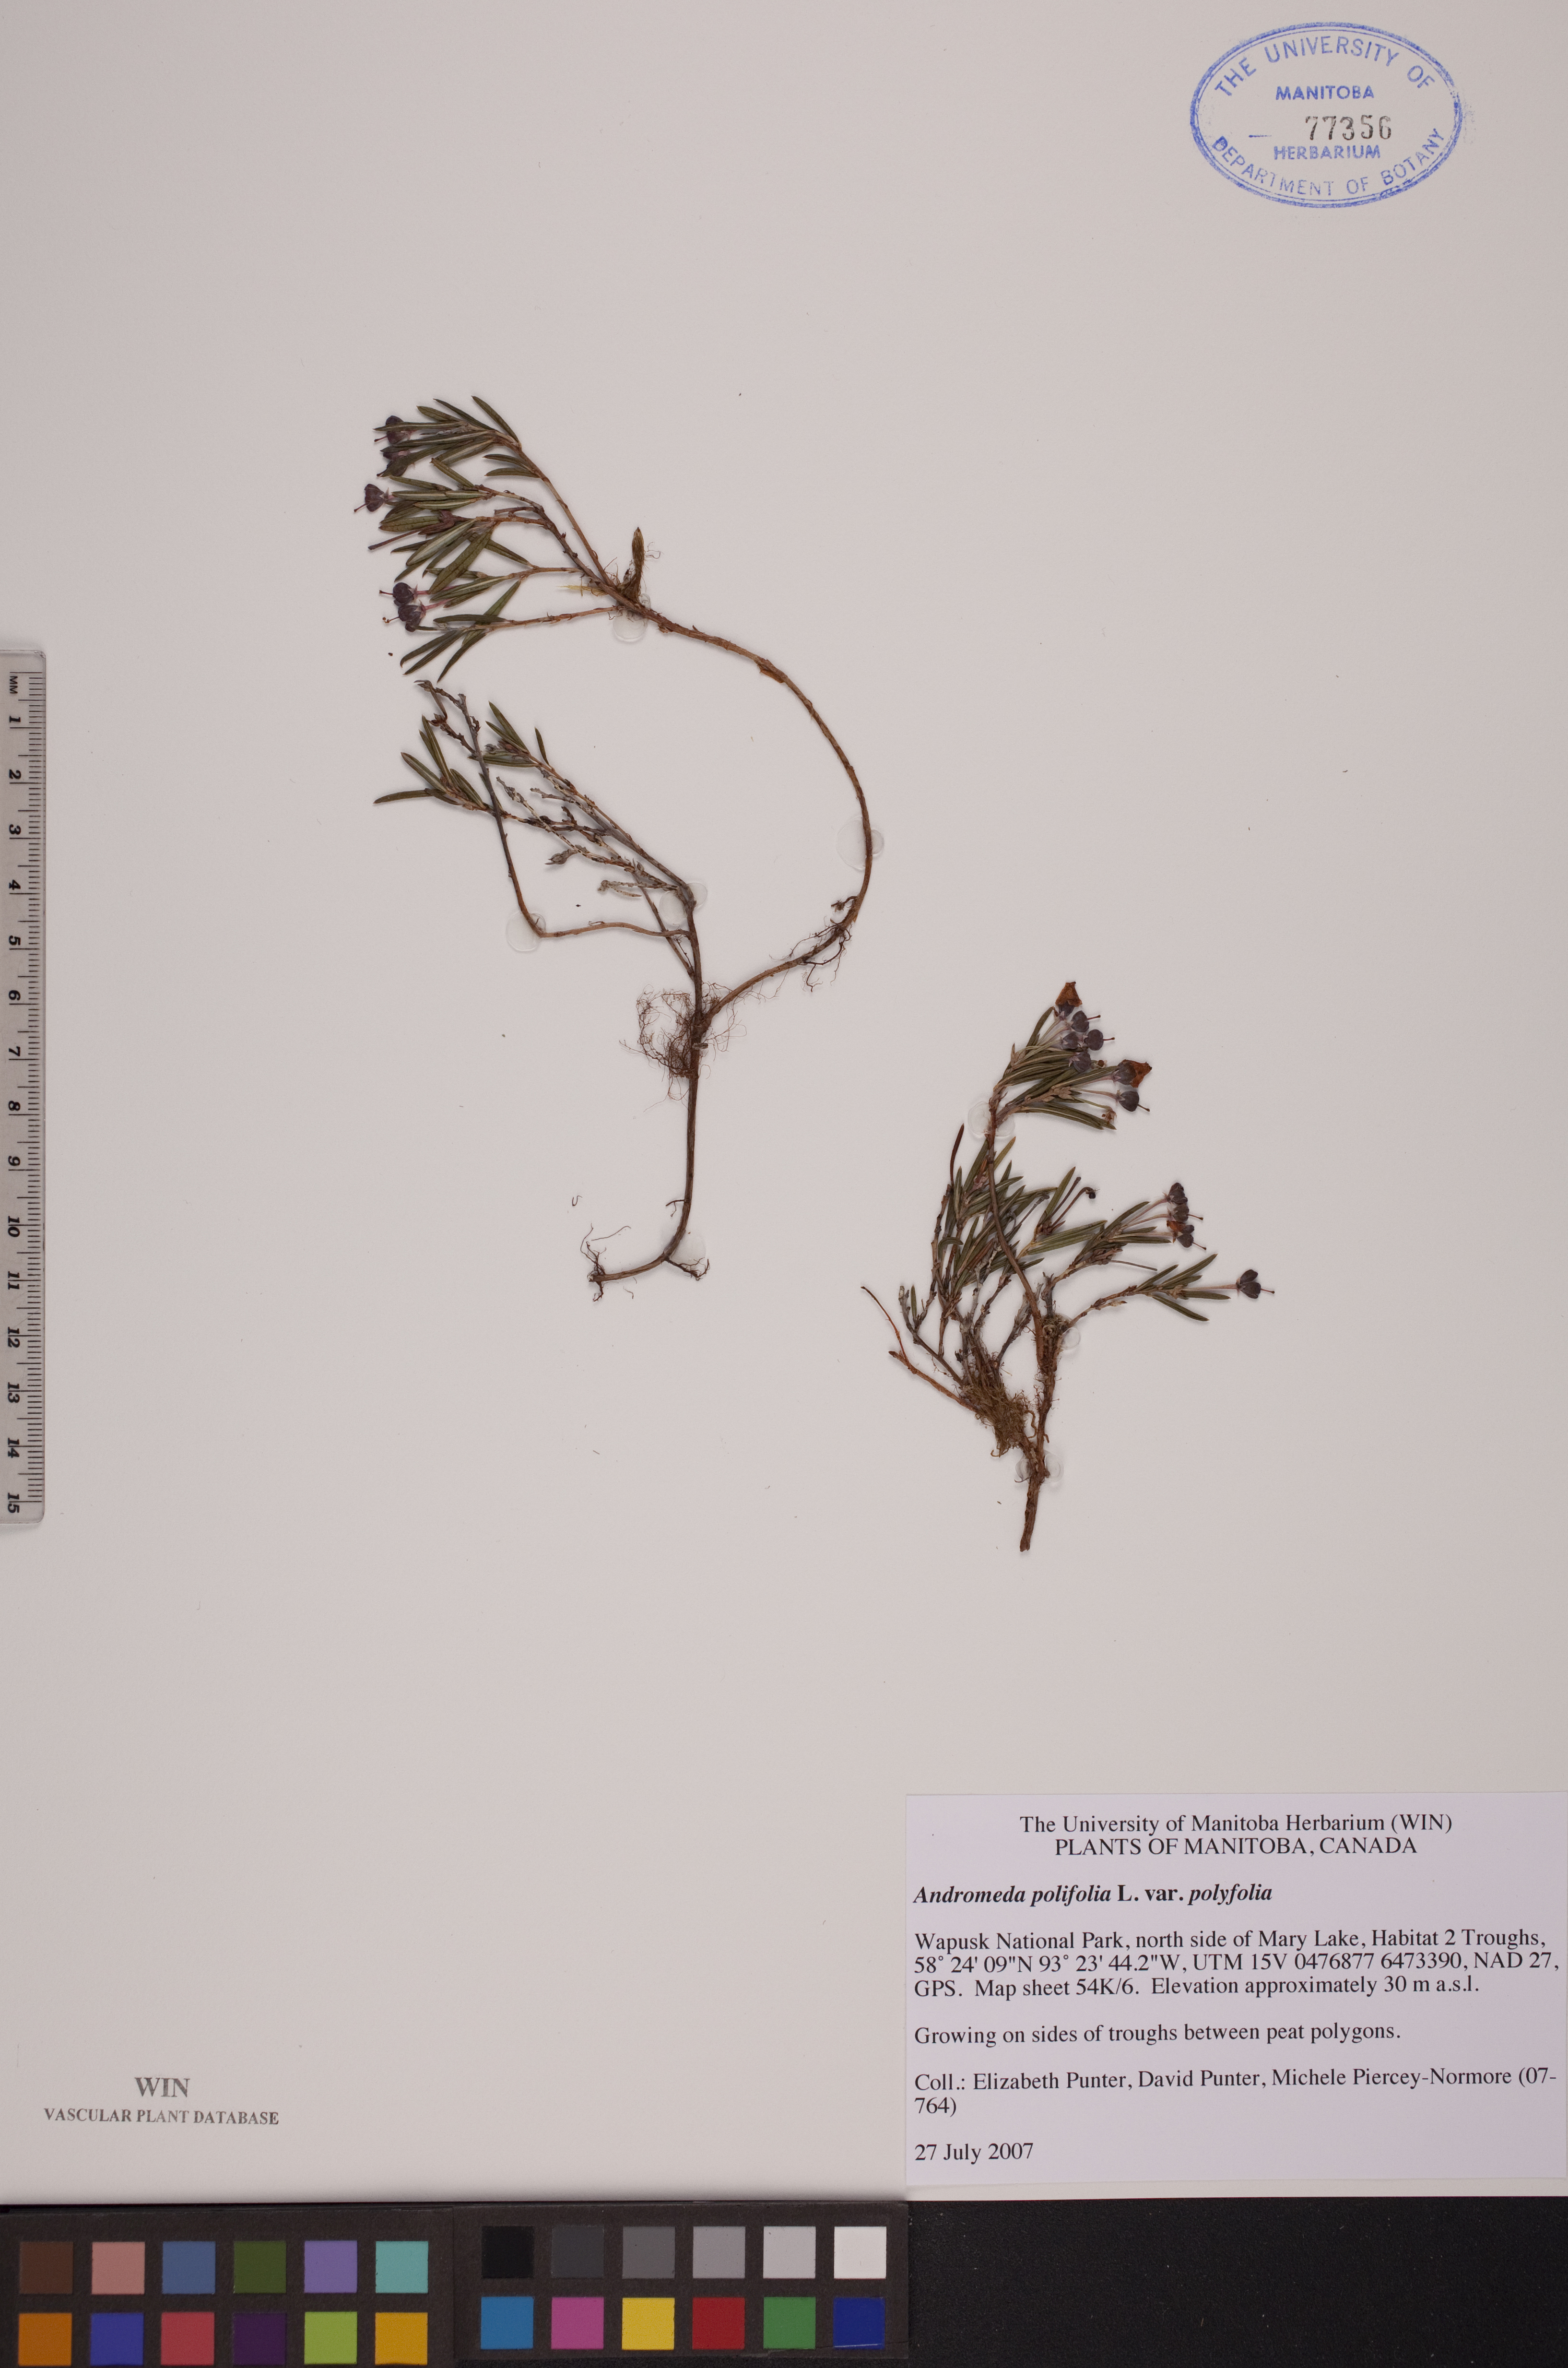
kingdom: Plantae
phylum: Tracheophyta
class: Magnoliopsida
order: Ericales
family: Ericaceae
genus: Andromeda
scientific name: Andromeda polifolia
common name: Bog-rosemary
